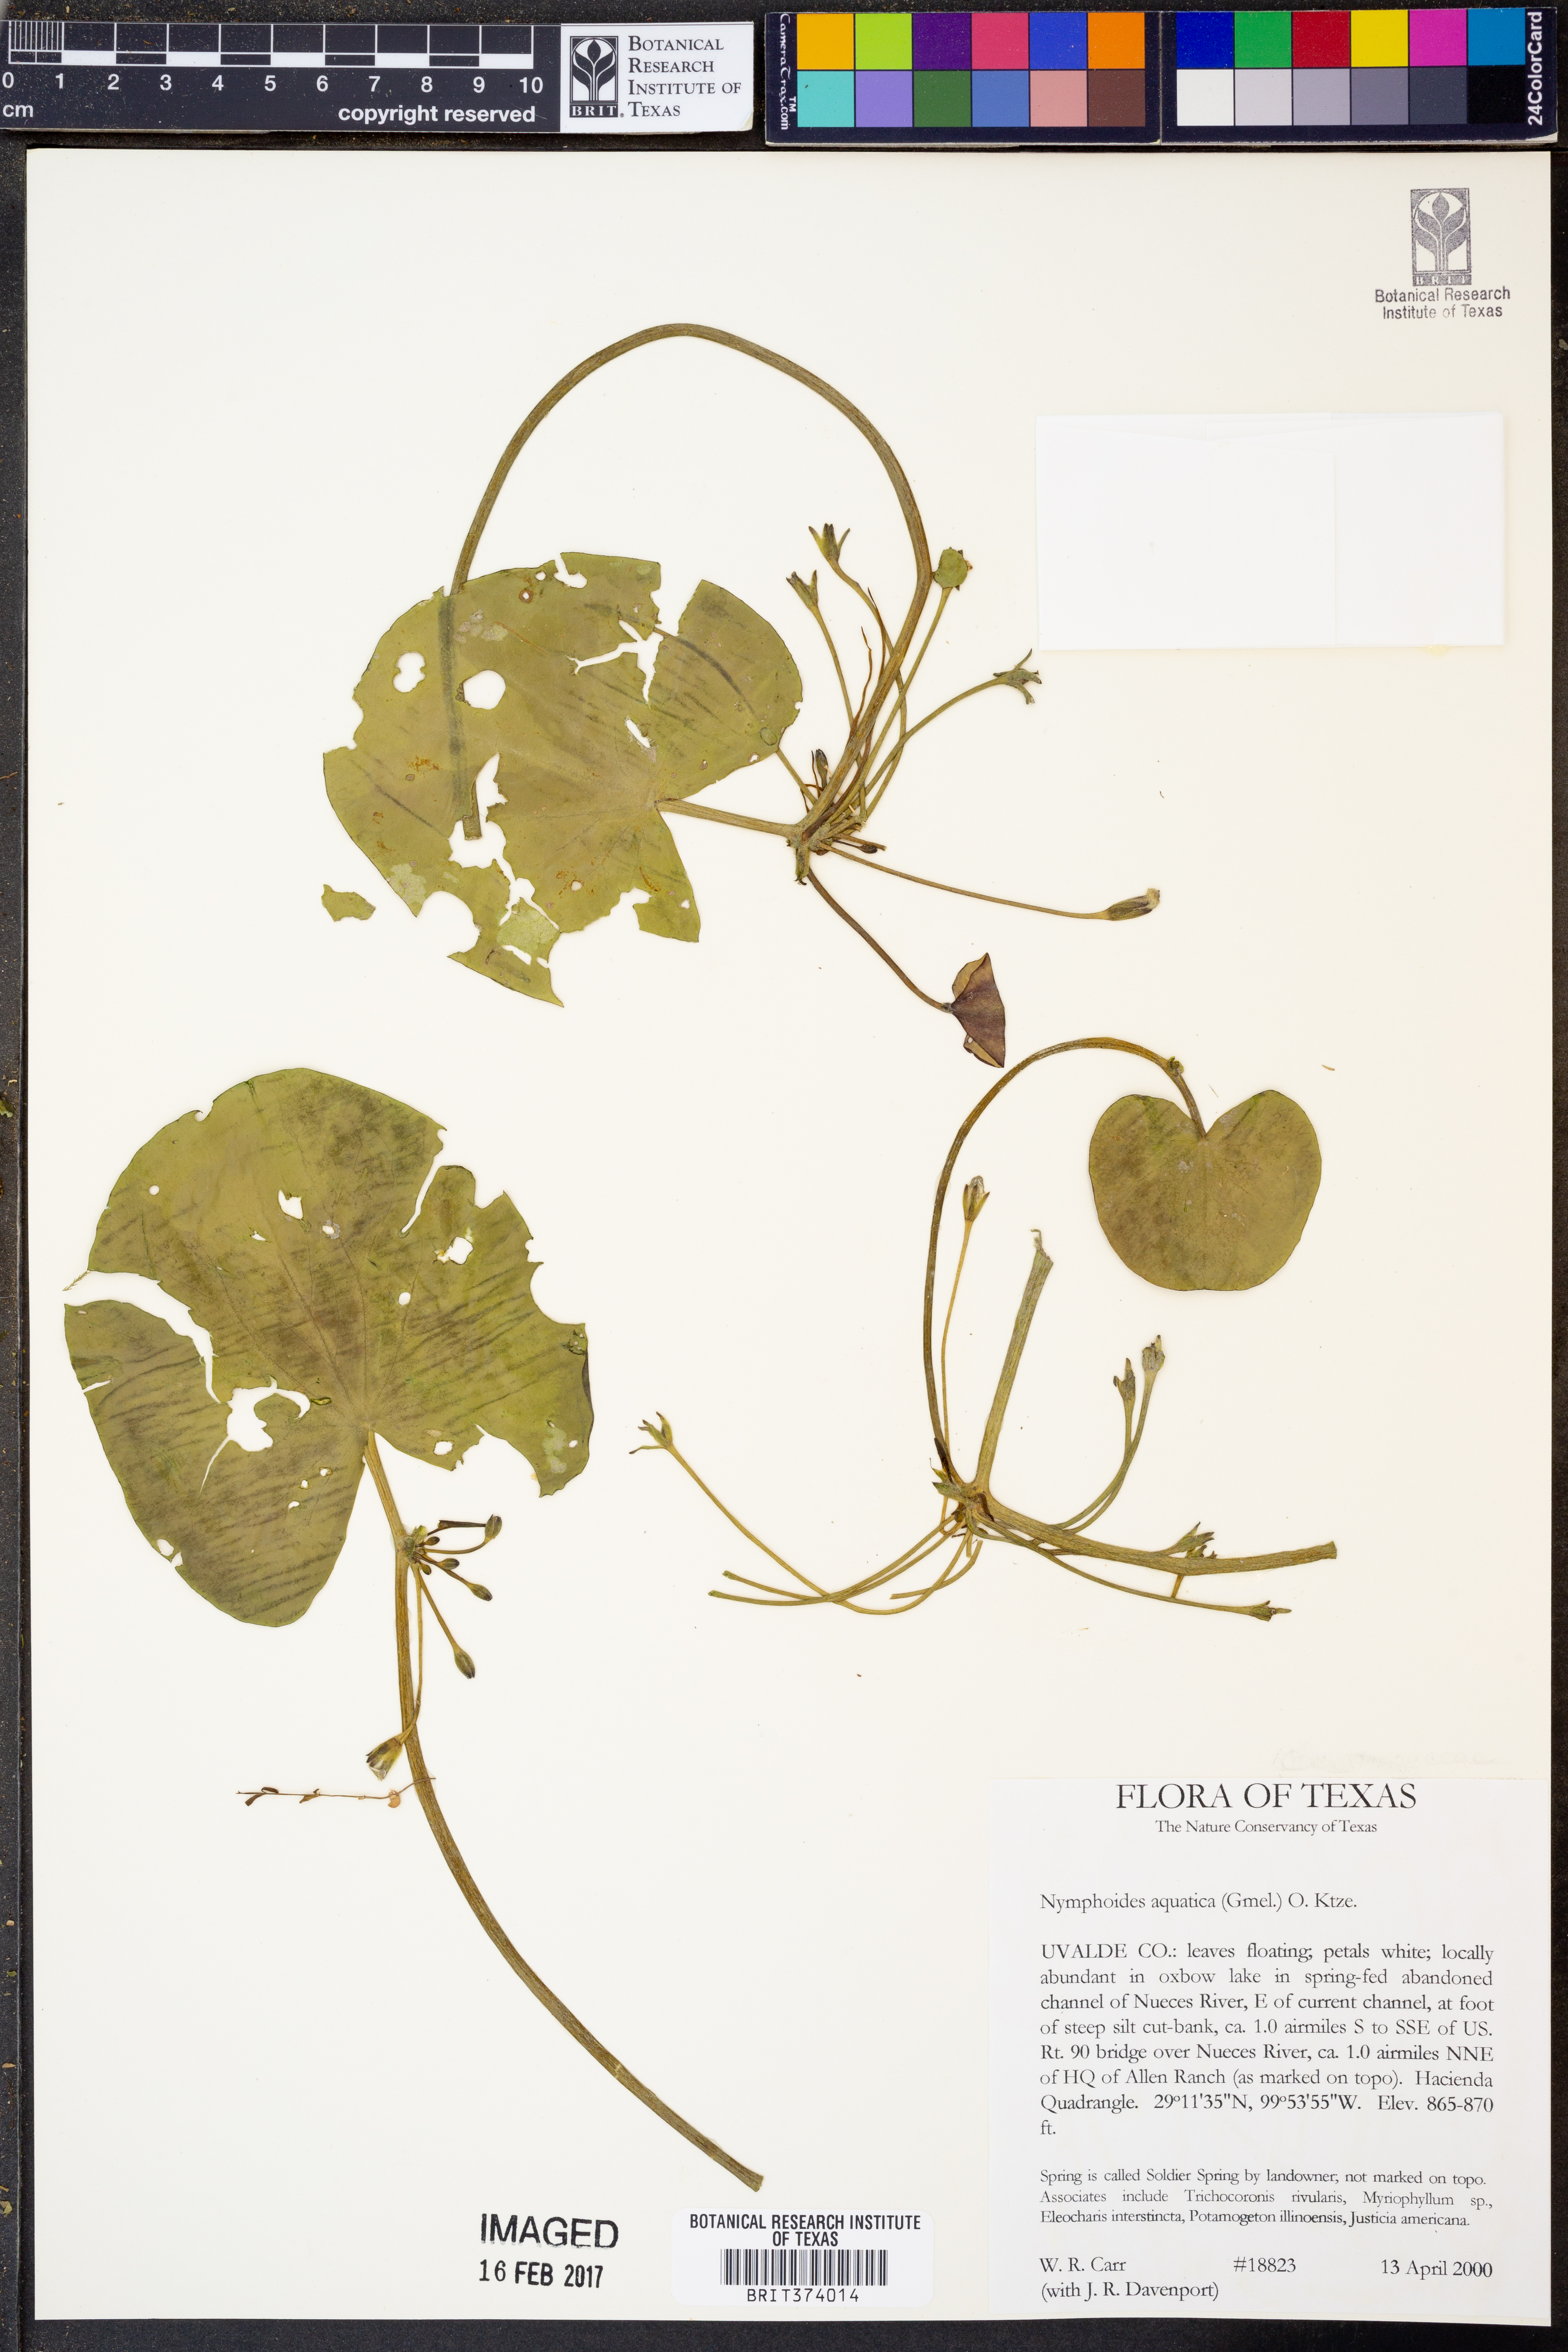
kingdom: Plantae
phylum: Tracheophyta
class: Magnoliopsida
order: Asterales
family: Menyanthaceae
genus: Nymphoides
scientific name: Nymphoides aquatica
